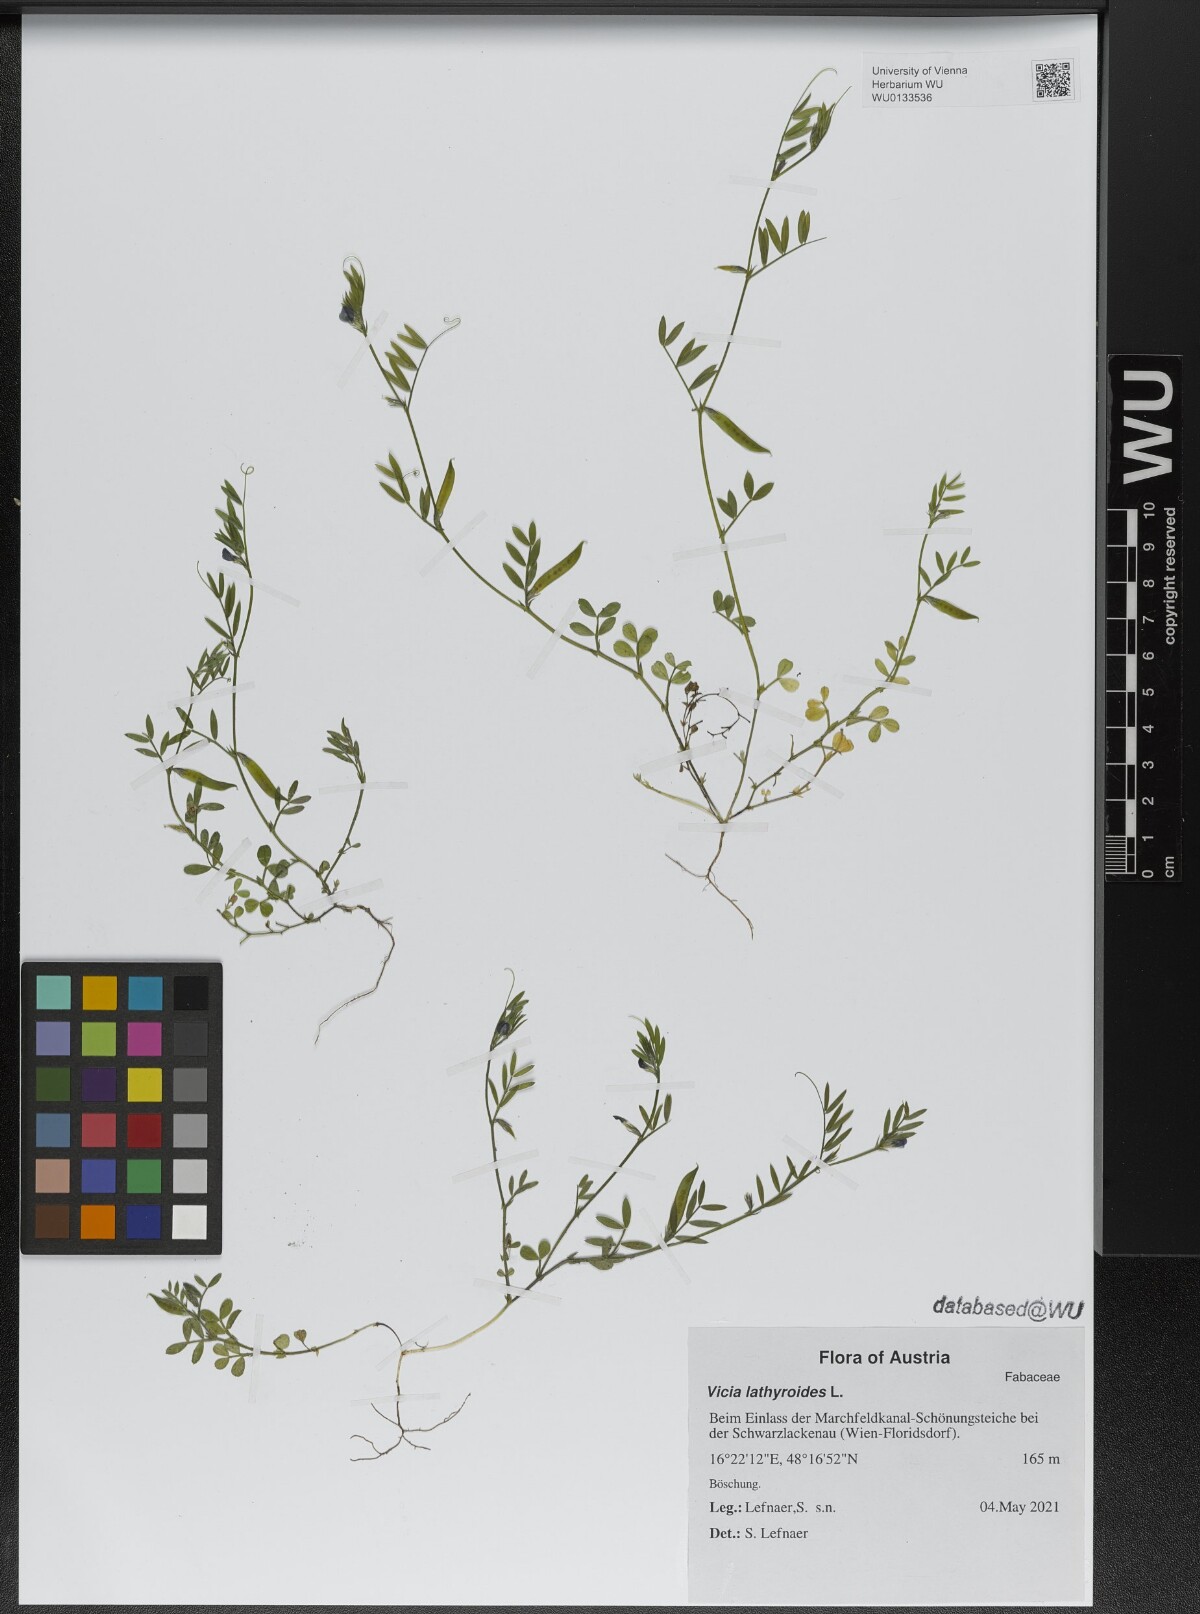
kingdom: Plantae
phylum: Tracheophyta
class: Magnoliopsida
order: Fabales
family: Fabaceae
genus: Vicia
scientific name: Vicia lathyroides
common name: Spring vetch
